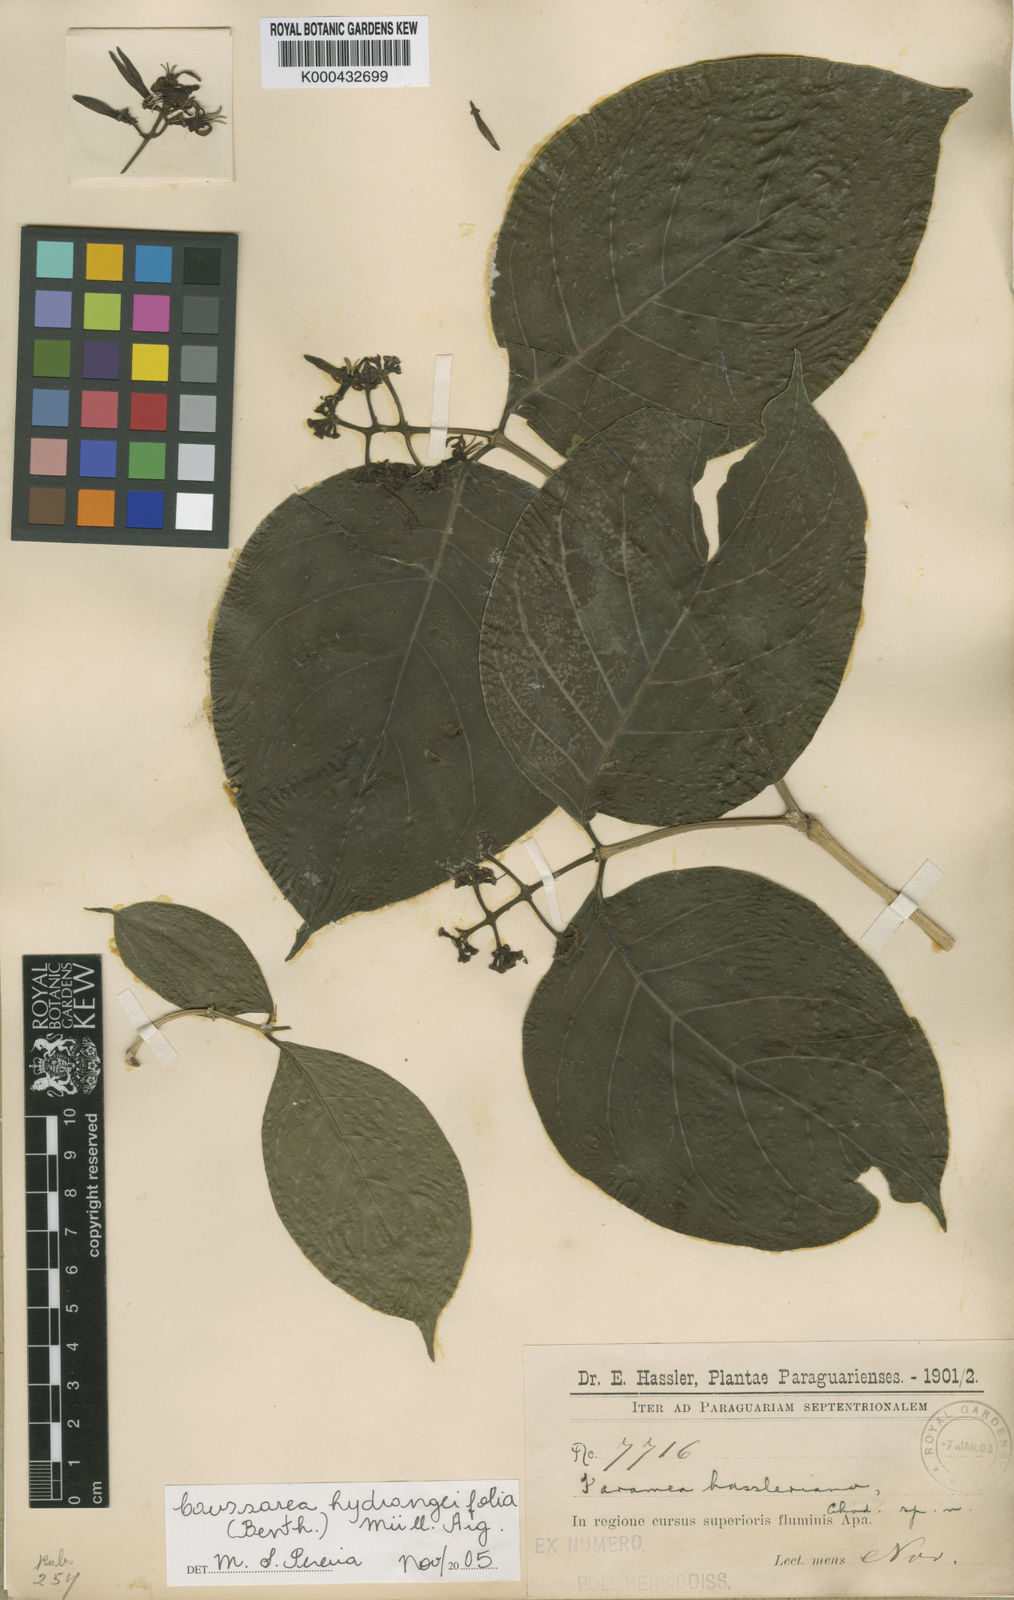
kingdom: Plantae
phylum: Tracheophyta
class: Magnoliopsida
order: Gentianales
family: Rubiaceae
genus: Coussarea
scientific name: Coussarea
